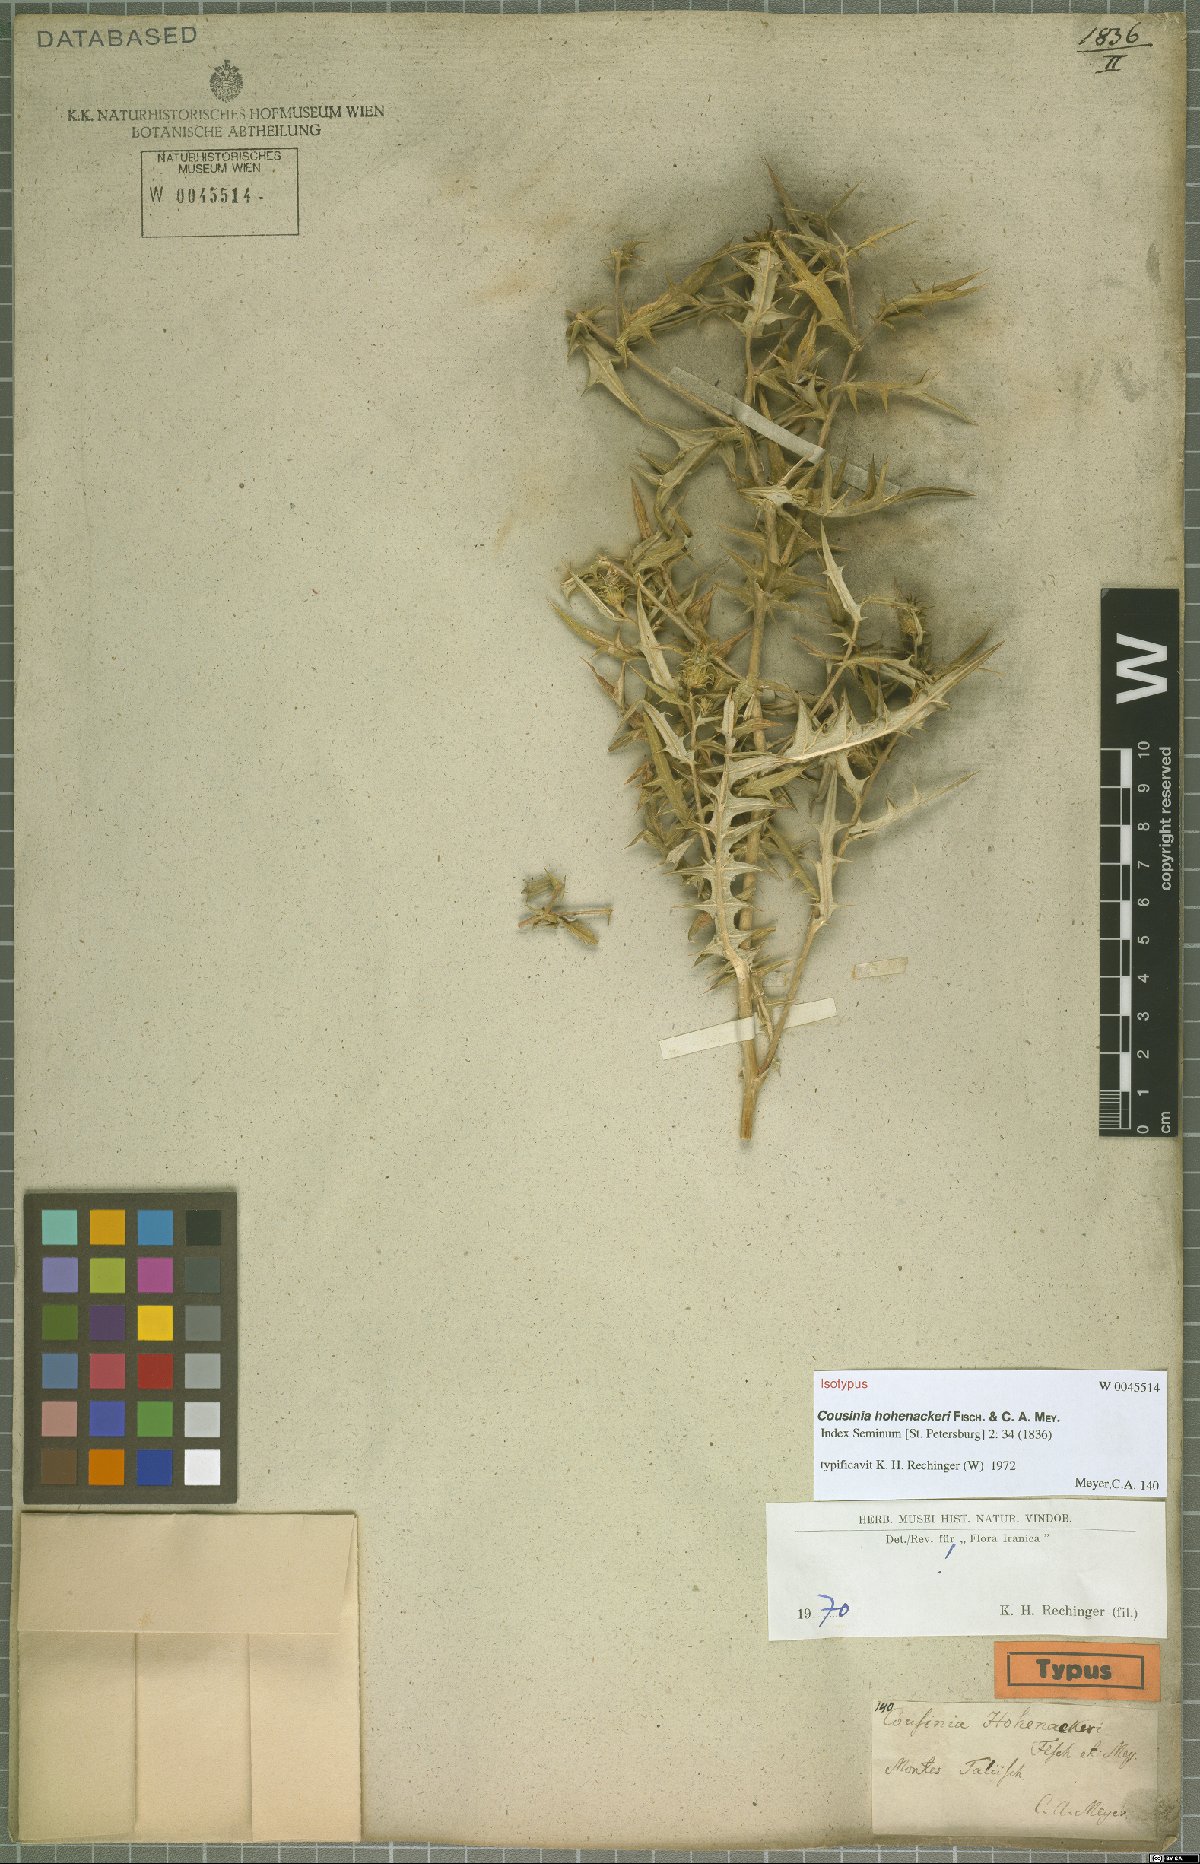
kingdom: Plantae
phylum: Tracheophyta
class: Magnoliopsida
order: Asterales
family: Asteraceae
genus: Cousinia
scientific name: Cousinia hohenackeri
